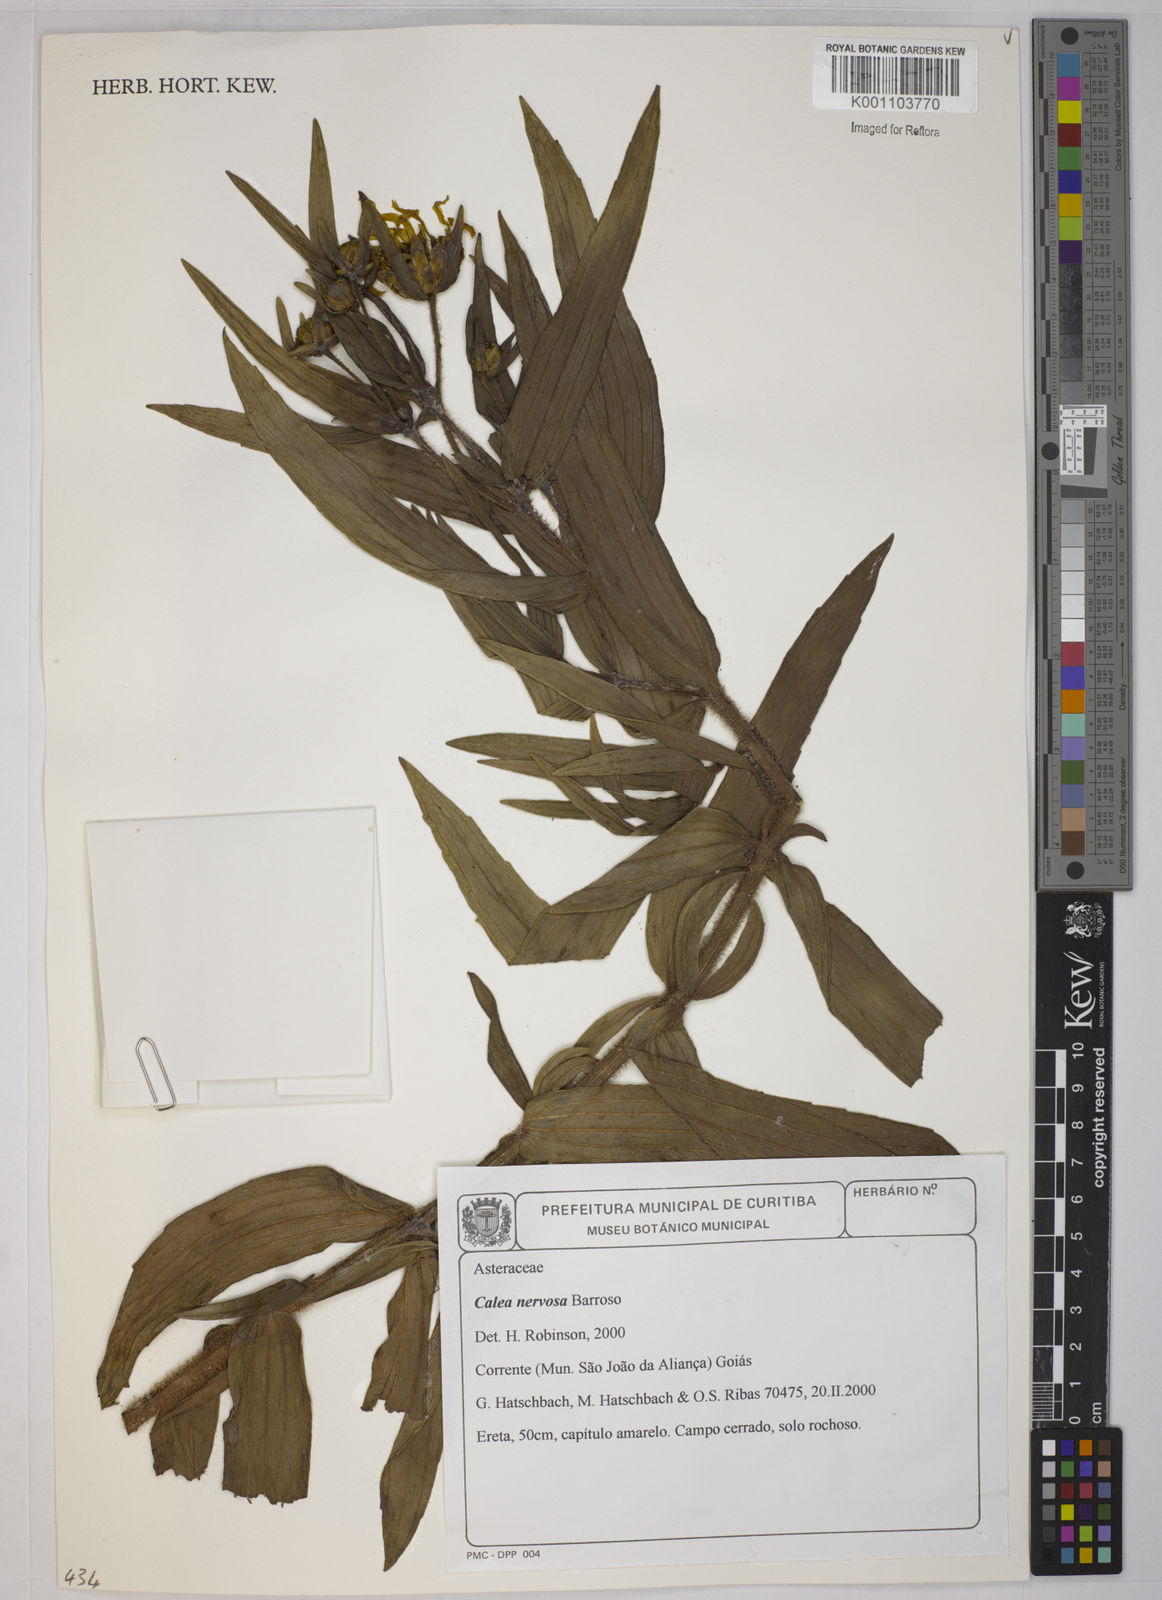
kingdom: Plantae
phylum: Tracheophyta
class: Magnoliopsida
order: Asterales
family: Asteraceae
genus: Calea
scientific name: Calea nervosa
